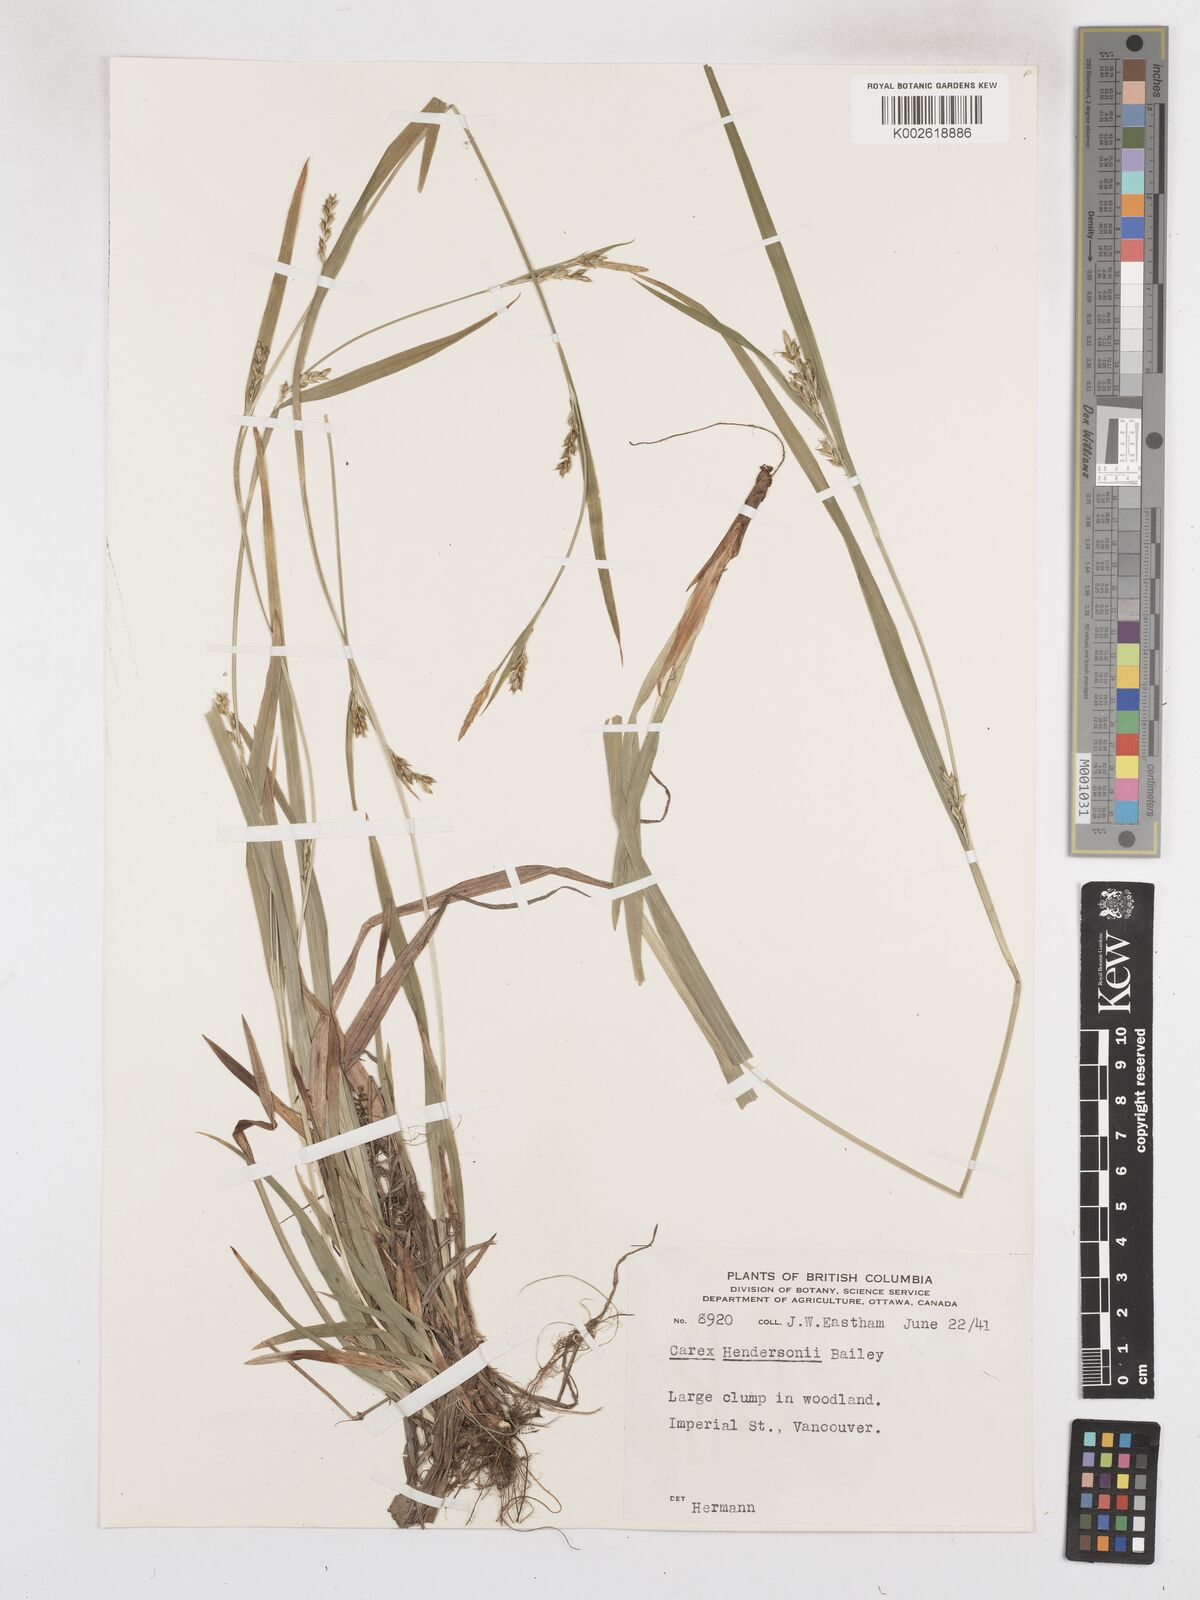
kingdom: Plantae
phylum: Tracheophyta
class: Liliopsida
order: Poales
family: Cyperaceae
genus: Carex
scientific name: Carex hendersonii
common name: Henderson's sedge
